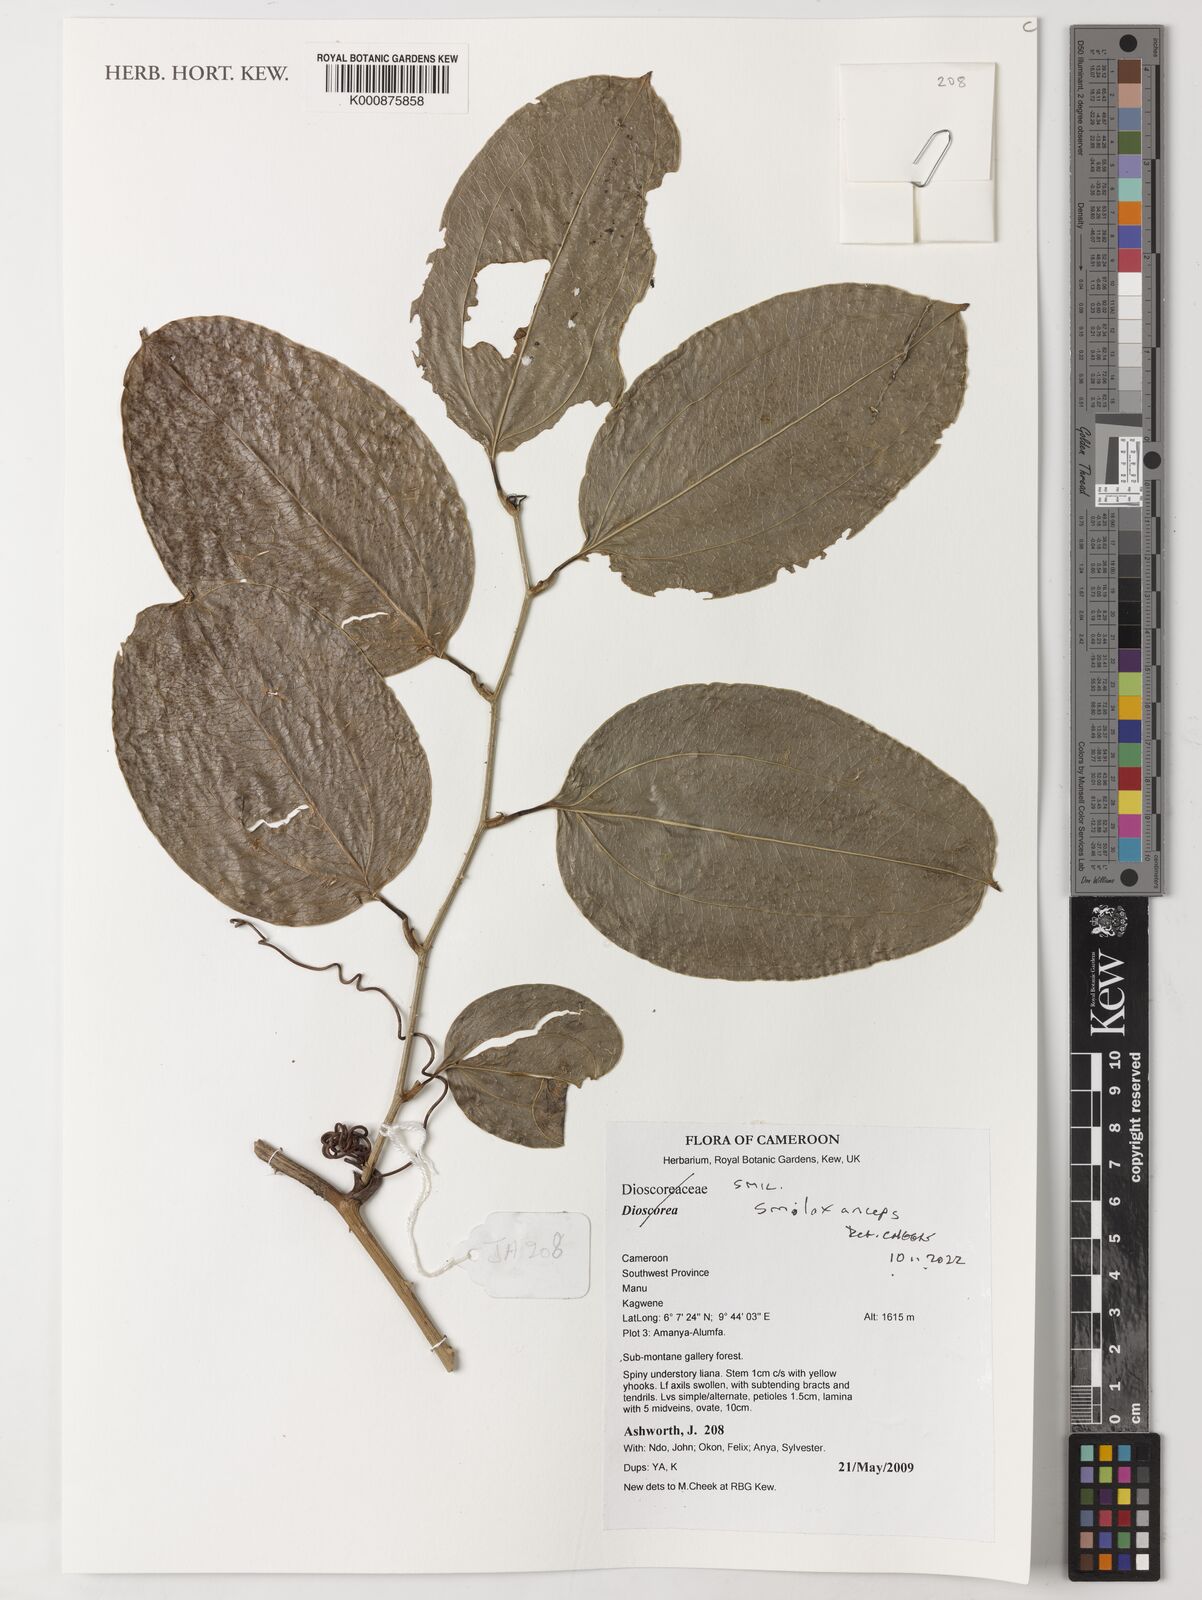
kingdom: Plantae
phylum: Tracheophyta
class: Liliopsida
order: Liliales
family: Smilacaceae
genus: Smilax
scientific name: Smilax anceps
